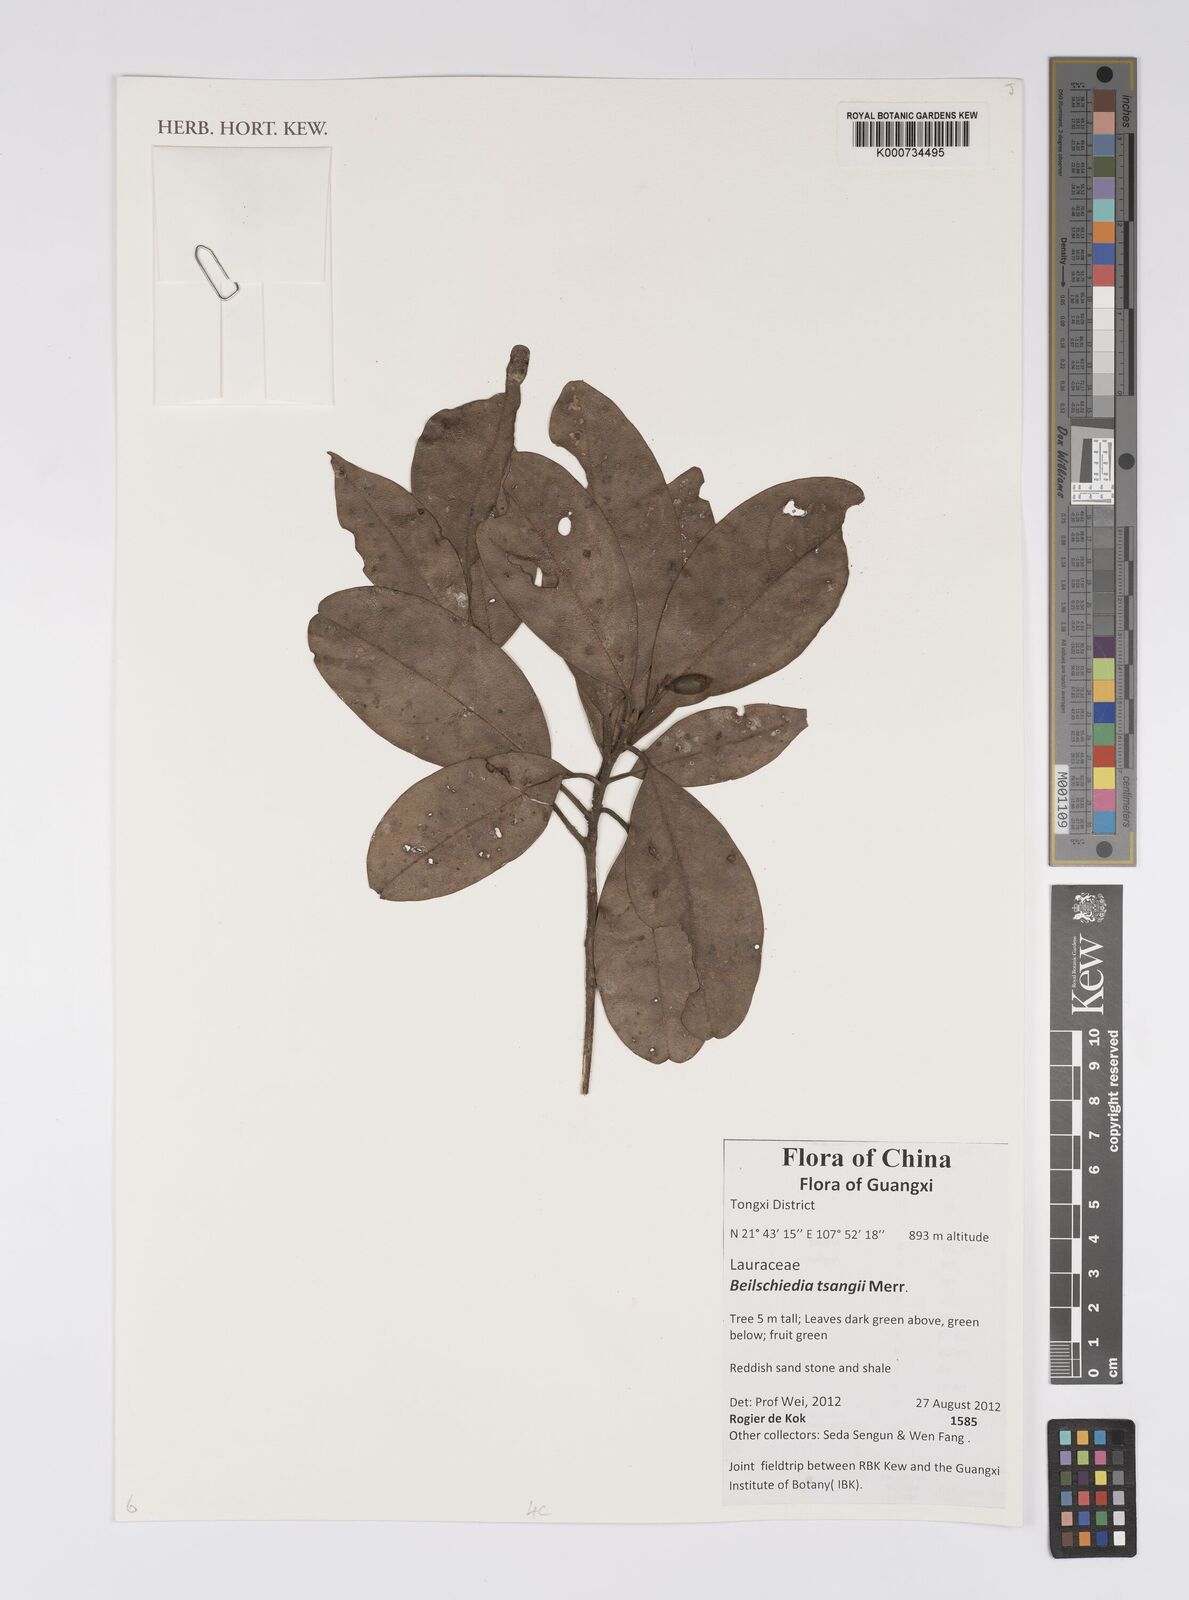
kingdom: Plantae
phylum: Tracheophyta
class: Magnoliopsida
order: Laurales
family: Lauraceae
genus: Beilschmiedia
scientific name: Beilschmiedia tsangii
